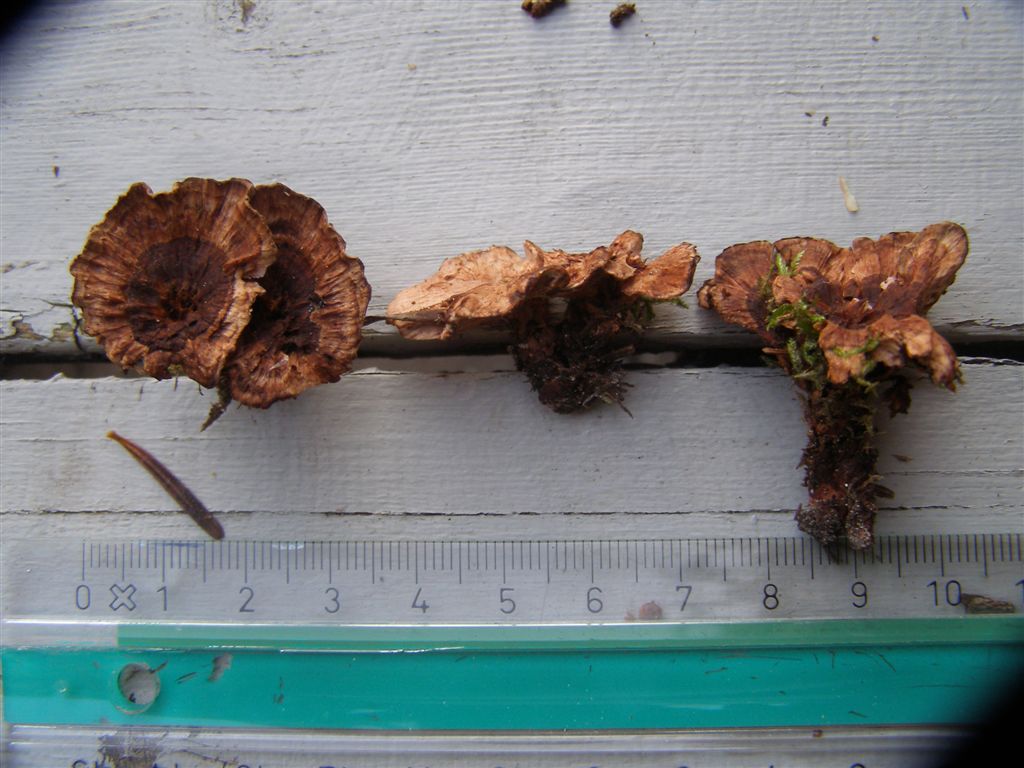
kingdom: Fungi
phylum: Basidiomycota
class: Agaricomycetes
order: Thelephorales
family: Bankeraceae
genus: Hydnellum
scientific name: Hydnellum concrescens
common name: bæltet korkpigsvamp
